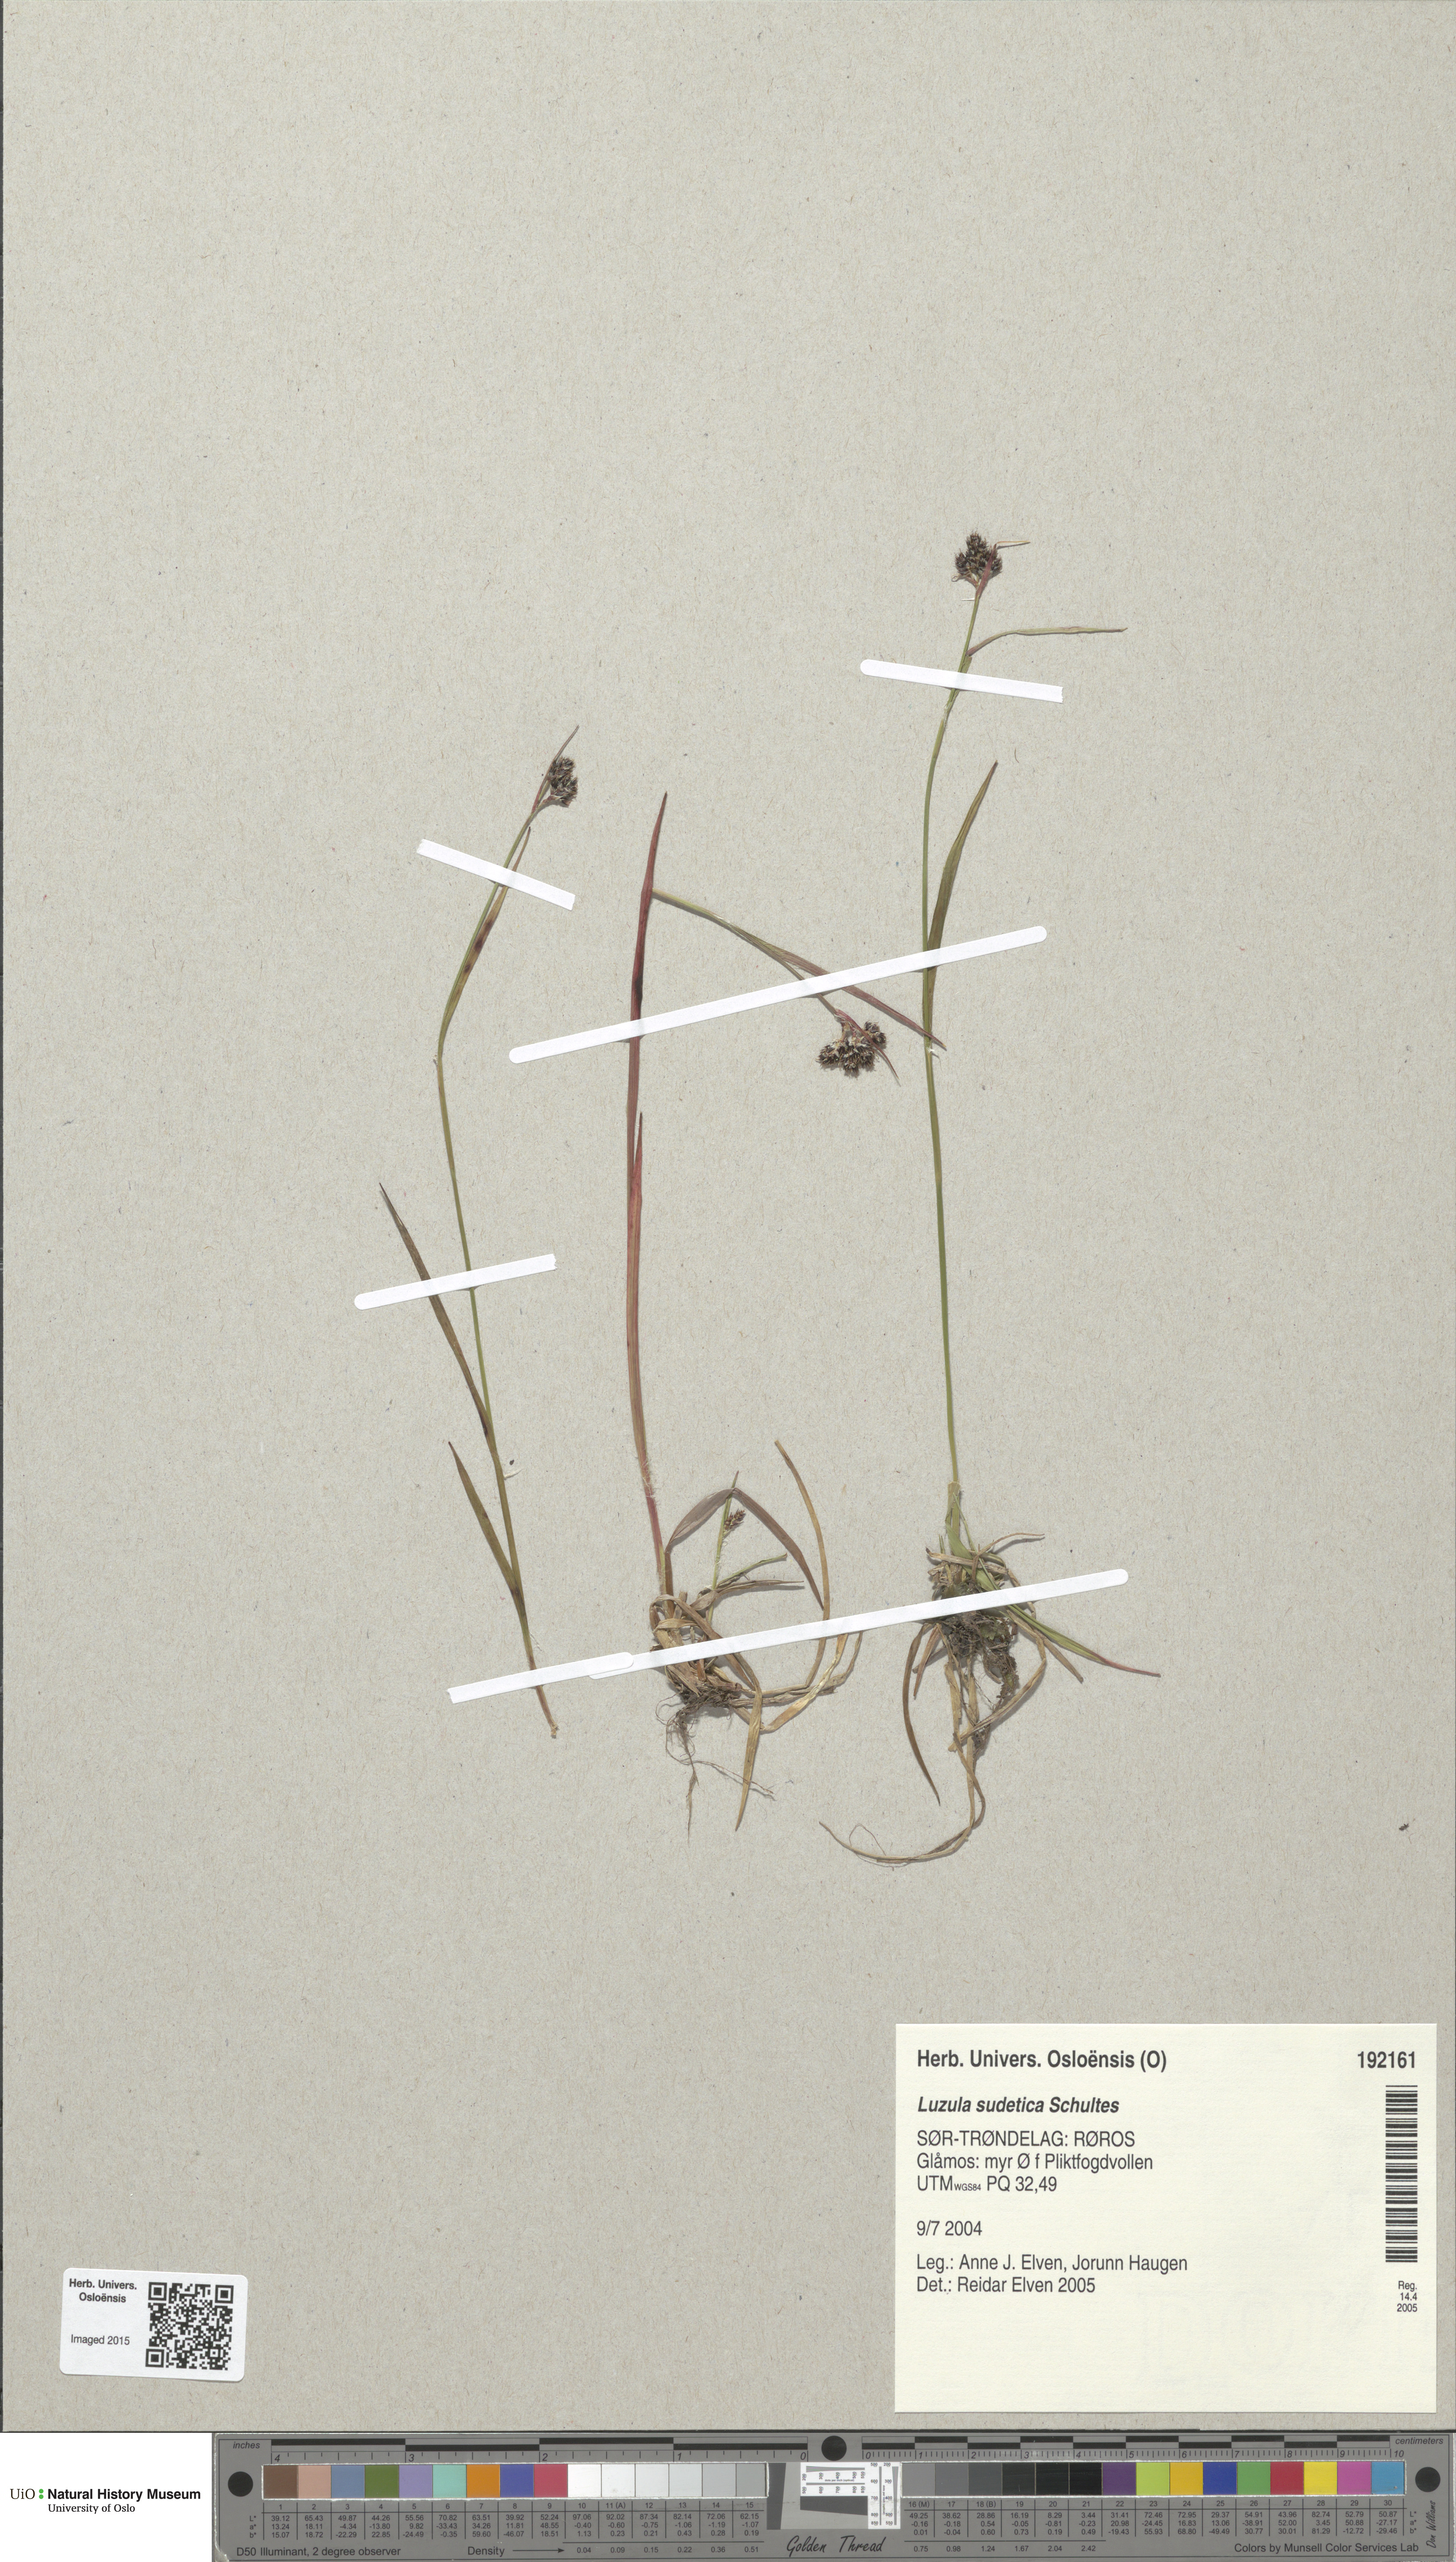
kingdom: Plantae
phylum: Tracheophyta
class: Liliopsida
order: Poales
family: Juncaceae
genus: Luzula
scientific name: Luzula sudetica
